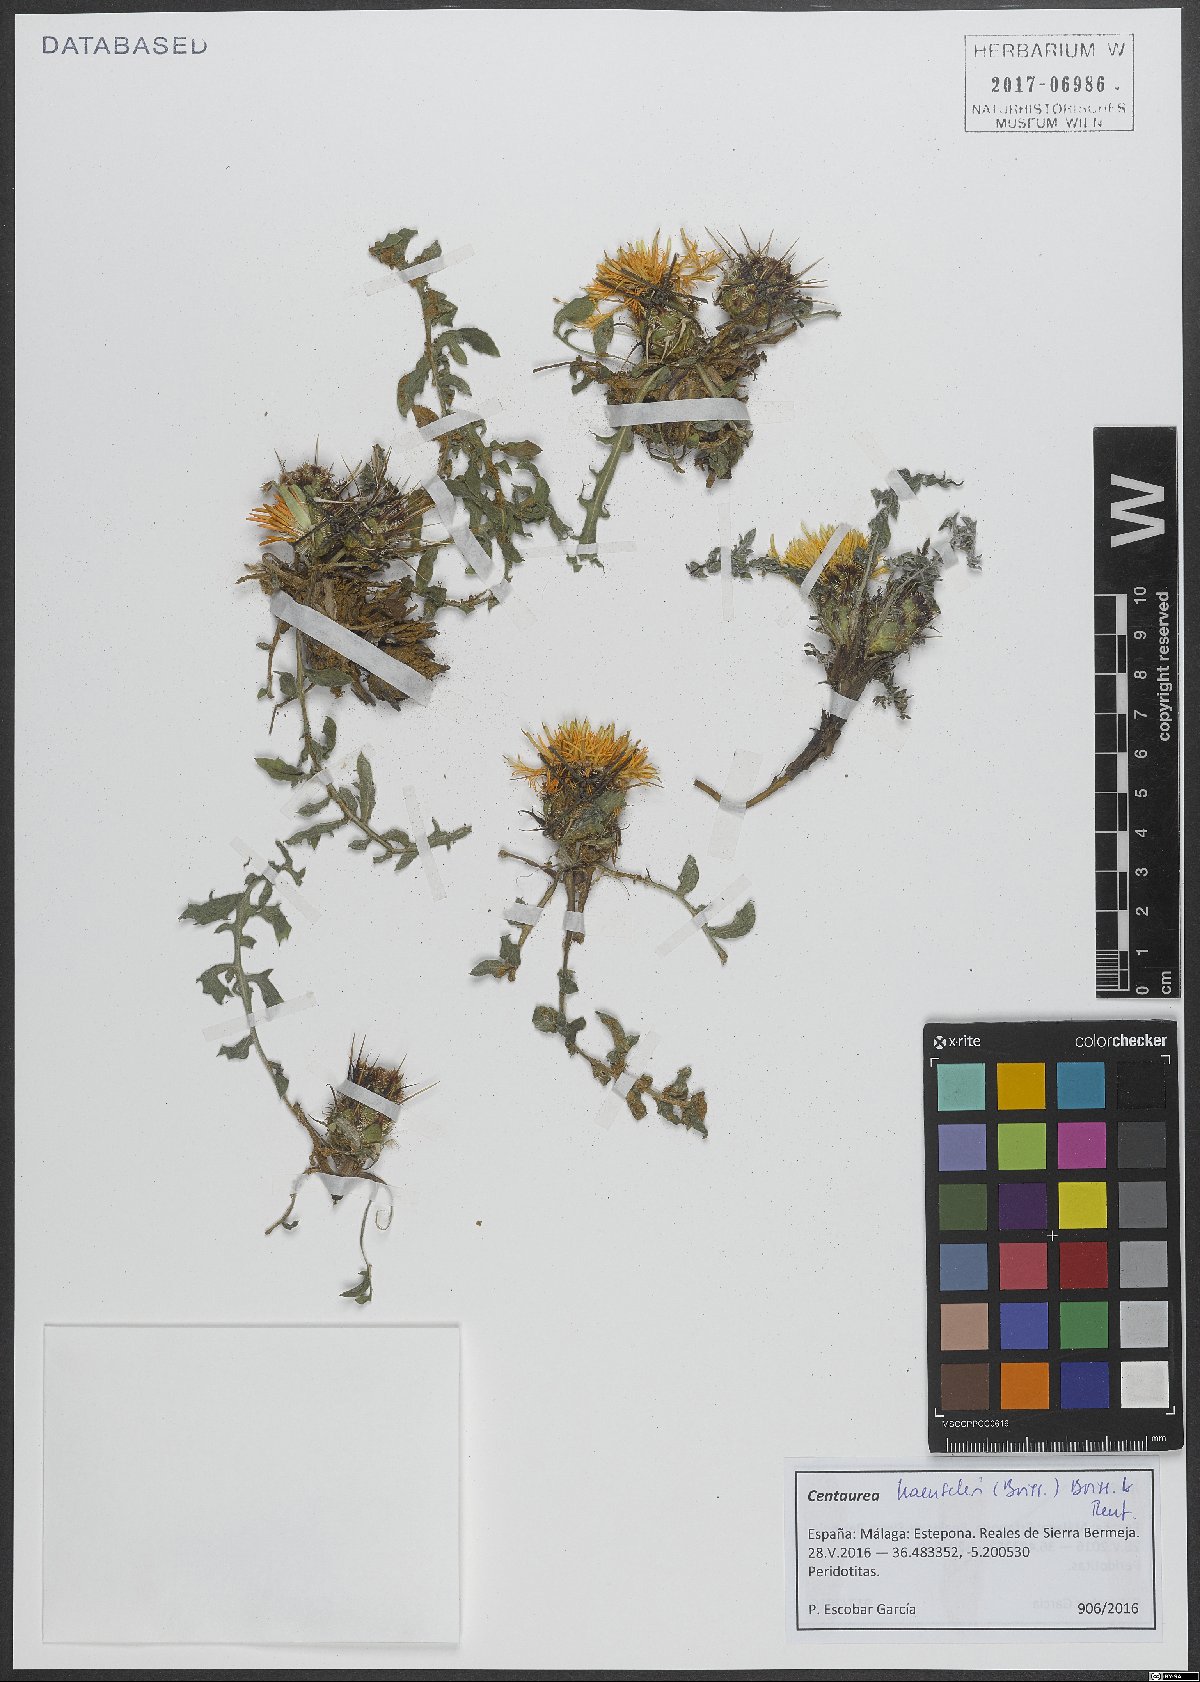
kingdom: Plantae
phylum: Tracheophyta
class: Magnoliopsida
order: Asterales
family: Asteraceae
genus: Centaurea
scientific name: Centaurea haenseleri
